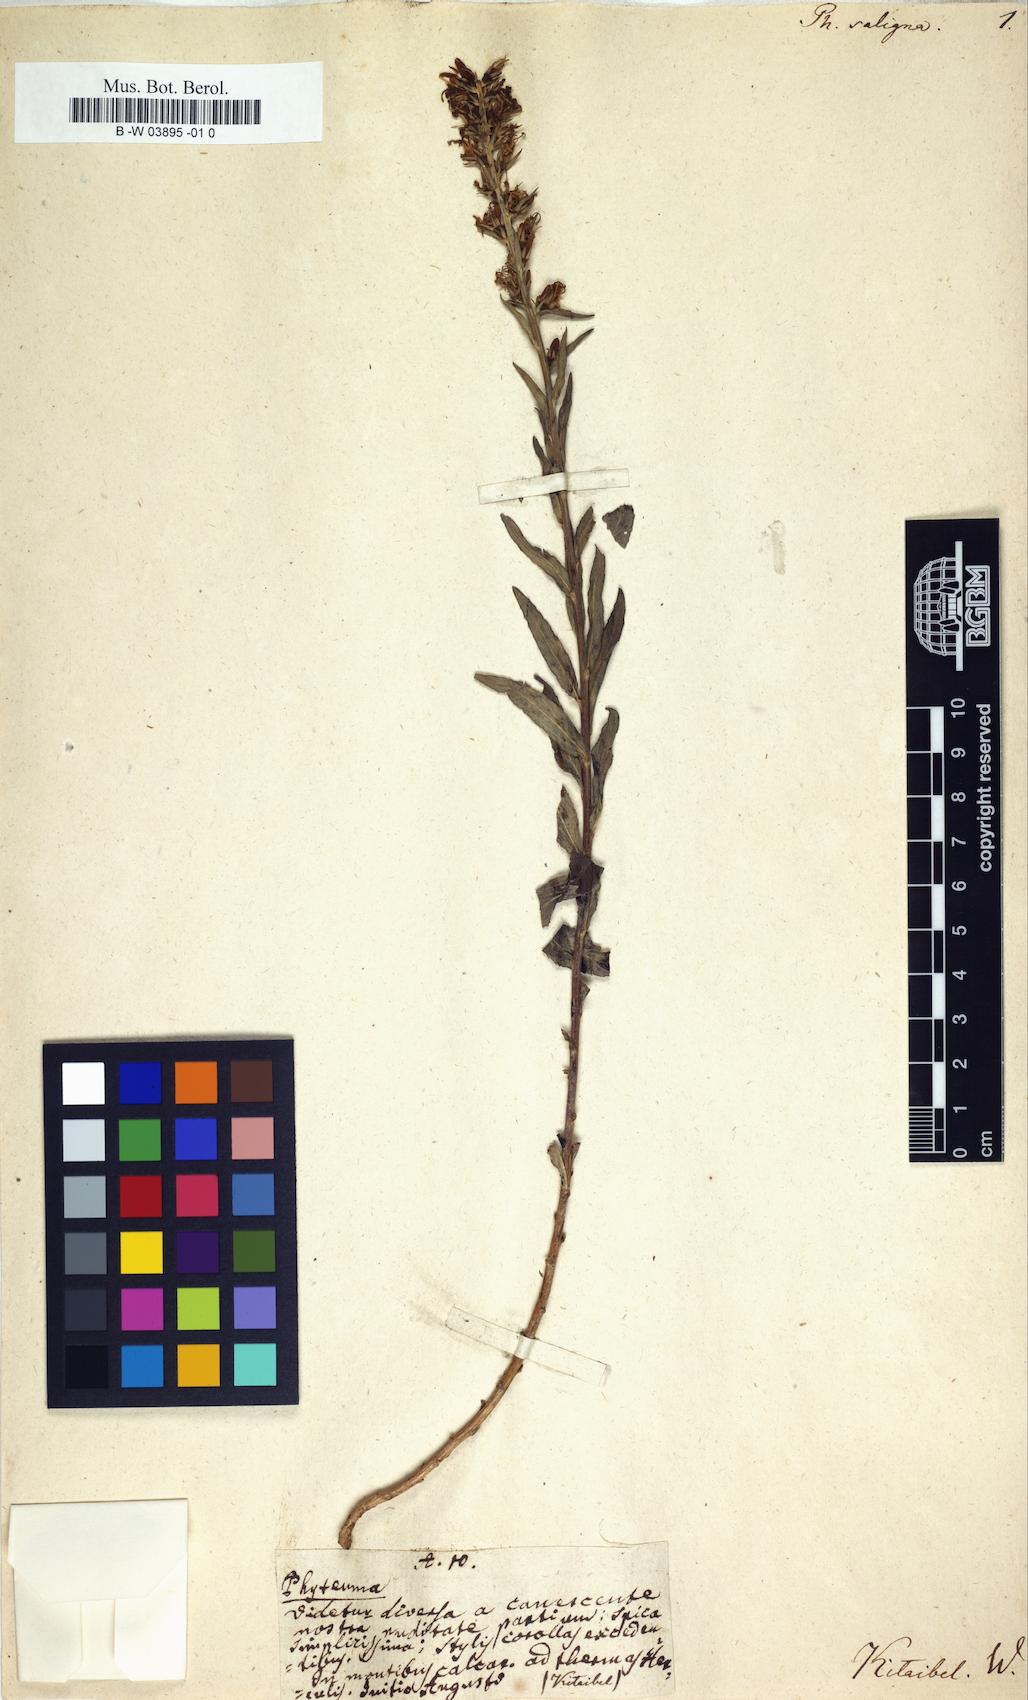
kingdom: Plantae
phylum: Tracheophyta
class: Magnoliopsida
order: Asterales
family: Campanulaceae
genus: Asyneuma
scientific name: Asyneuma canescens
